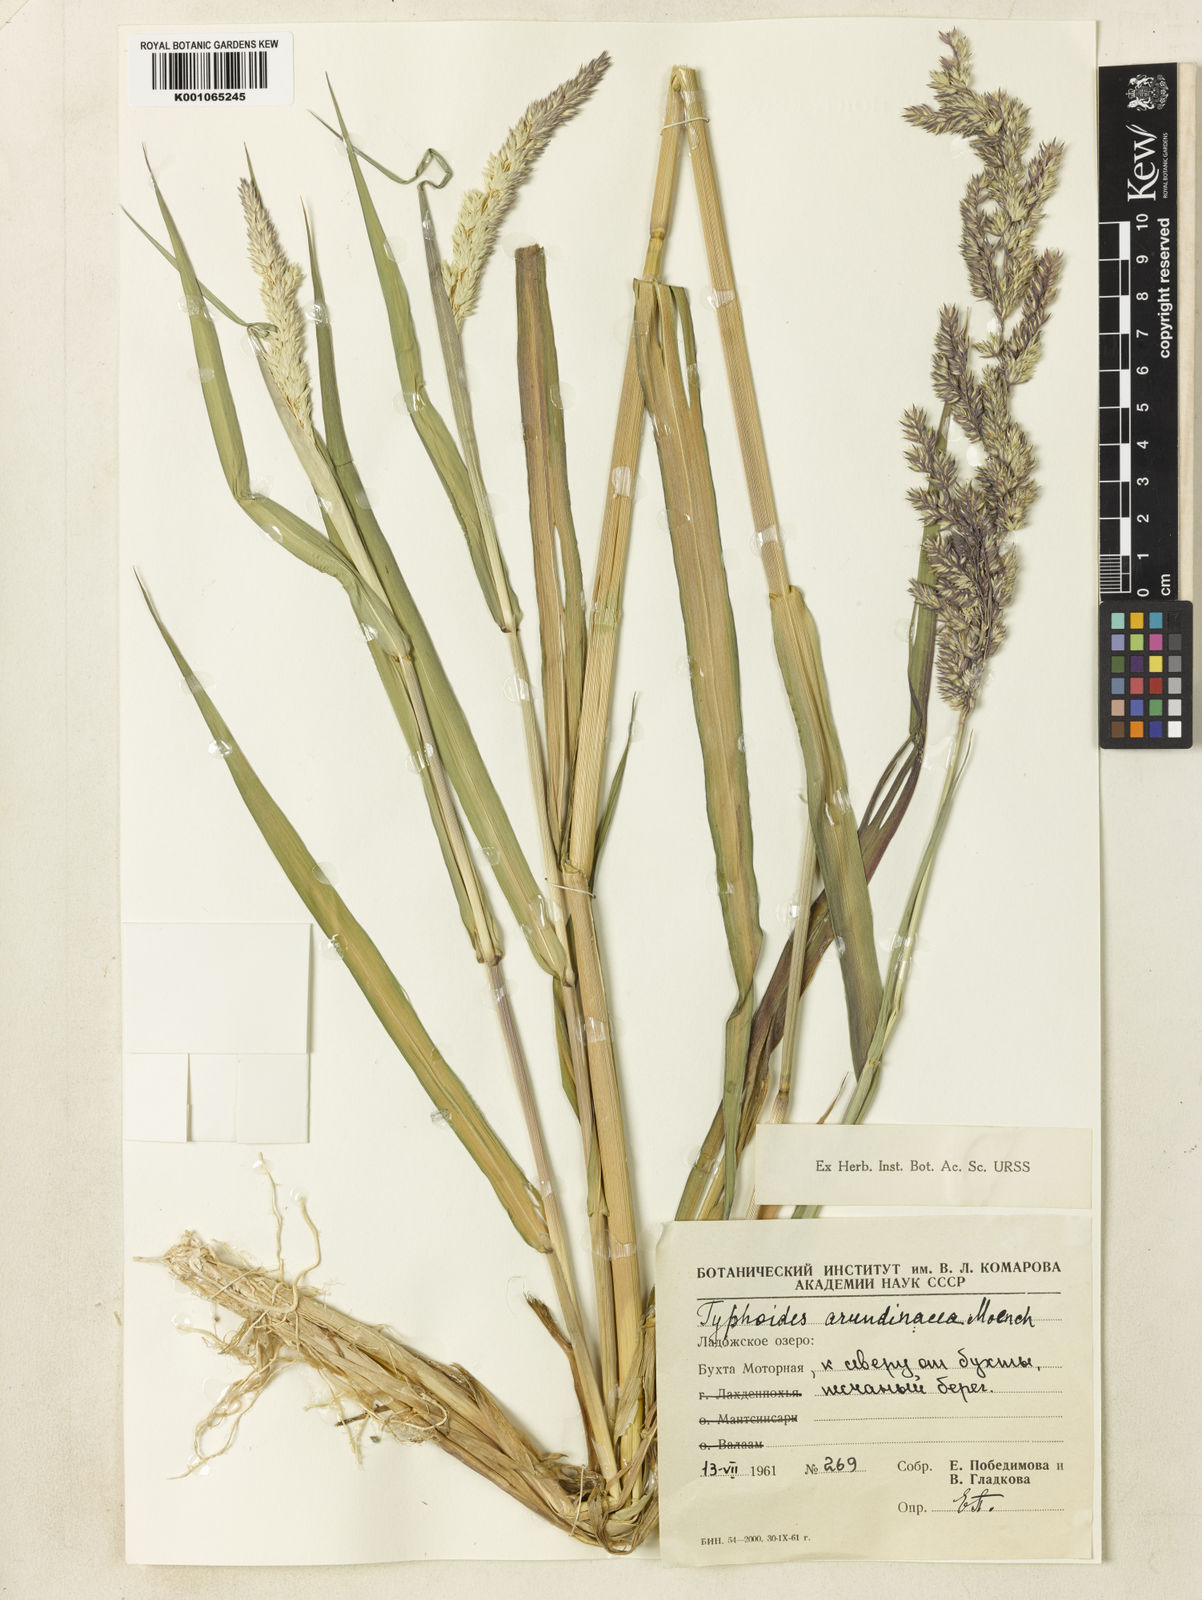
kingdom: Plantae
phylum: Tracheophyta
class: Liliopsida
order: Poales
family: Poaceae
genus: Phalaris
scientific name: Phalaris arundinacea
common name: Reed canary-grass
